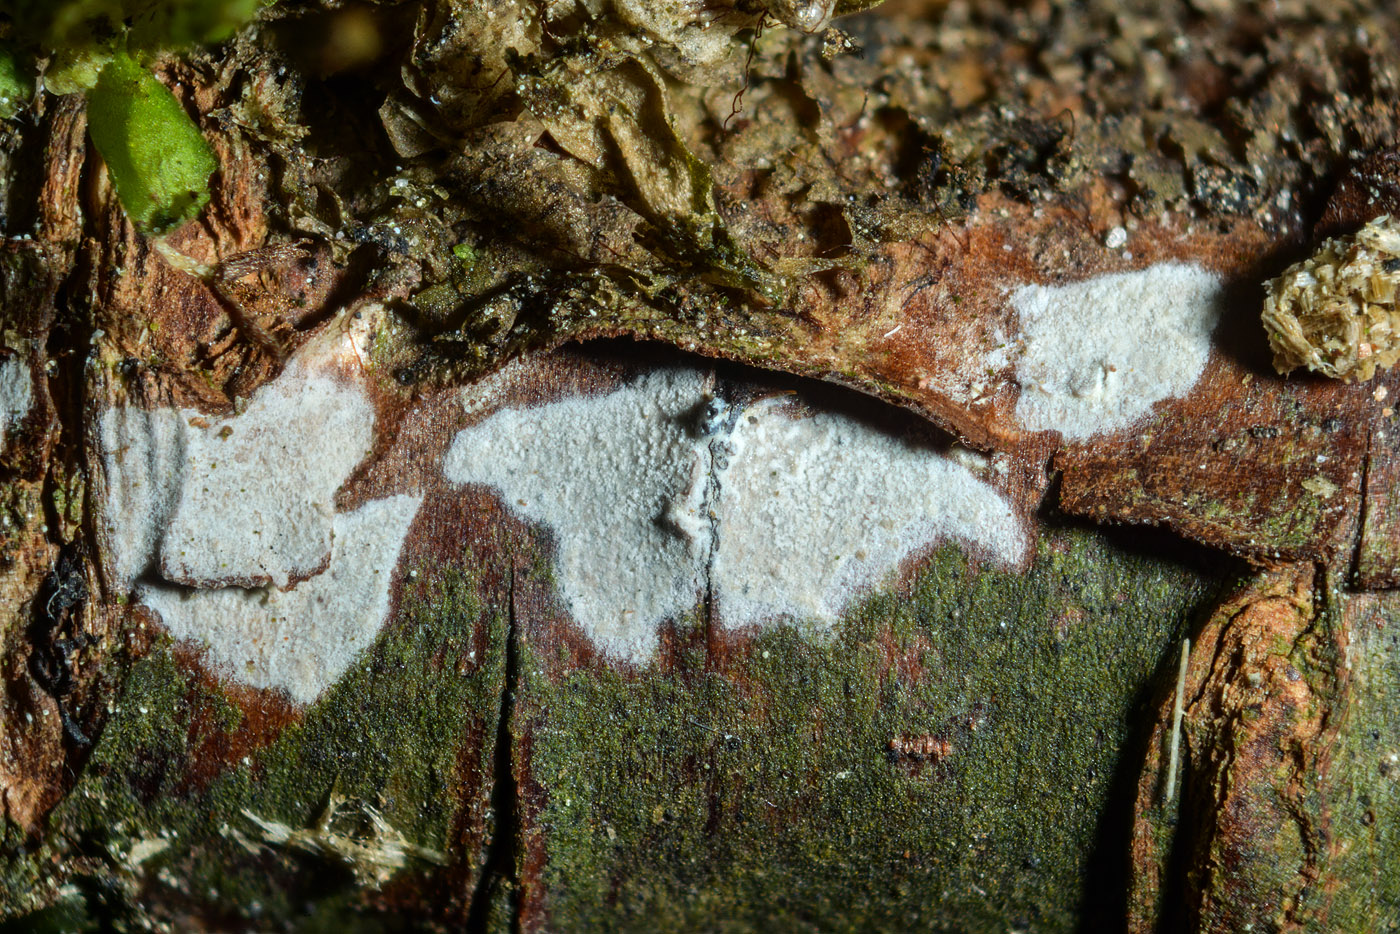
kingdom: Fungi
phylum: Basidiomycota
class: Agaricomycetes
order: Agaricales
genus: Dendrothele
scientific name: Dendrothele citrisporella
